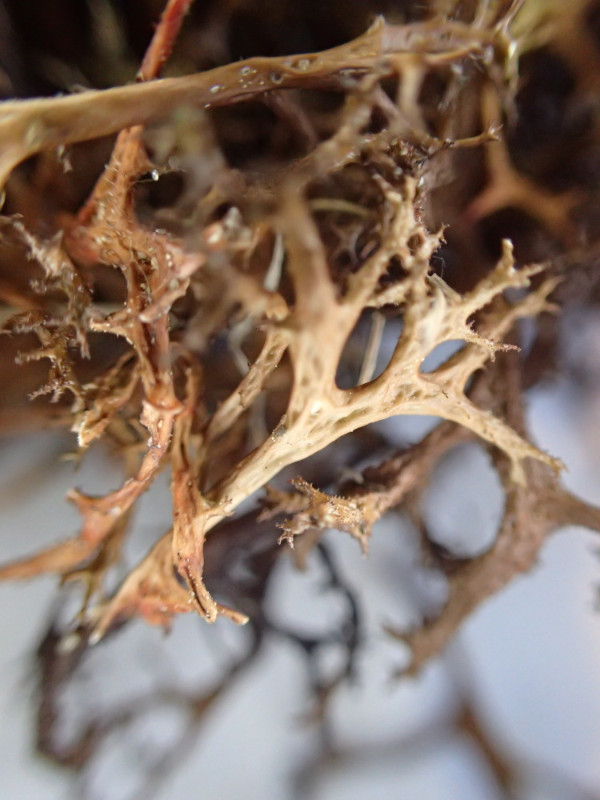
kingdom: Fungi
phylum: Ascomycota
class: Lecanoromycetes
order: Lecanorales
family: Parmeliaceae
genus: Cetraria
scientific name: Cetraria aculeata
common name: grubet tjørnelav
